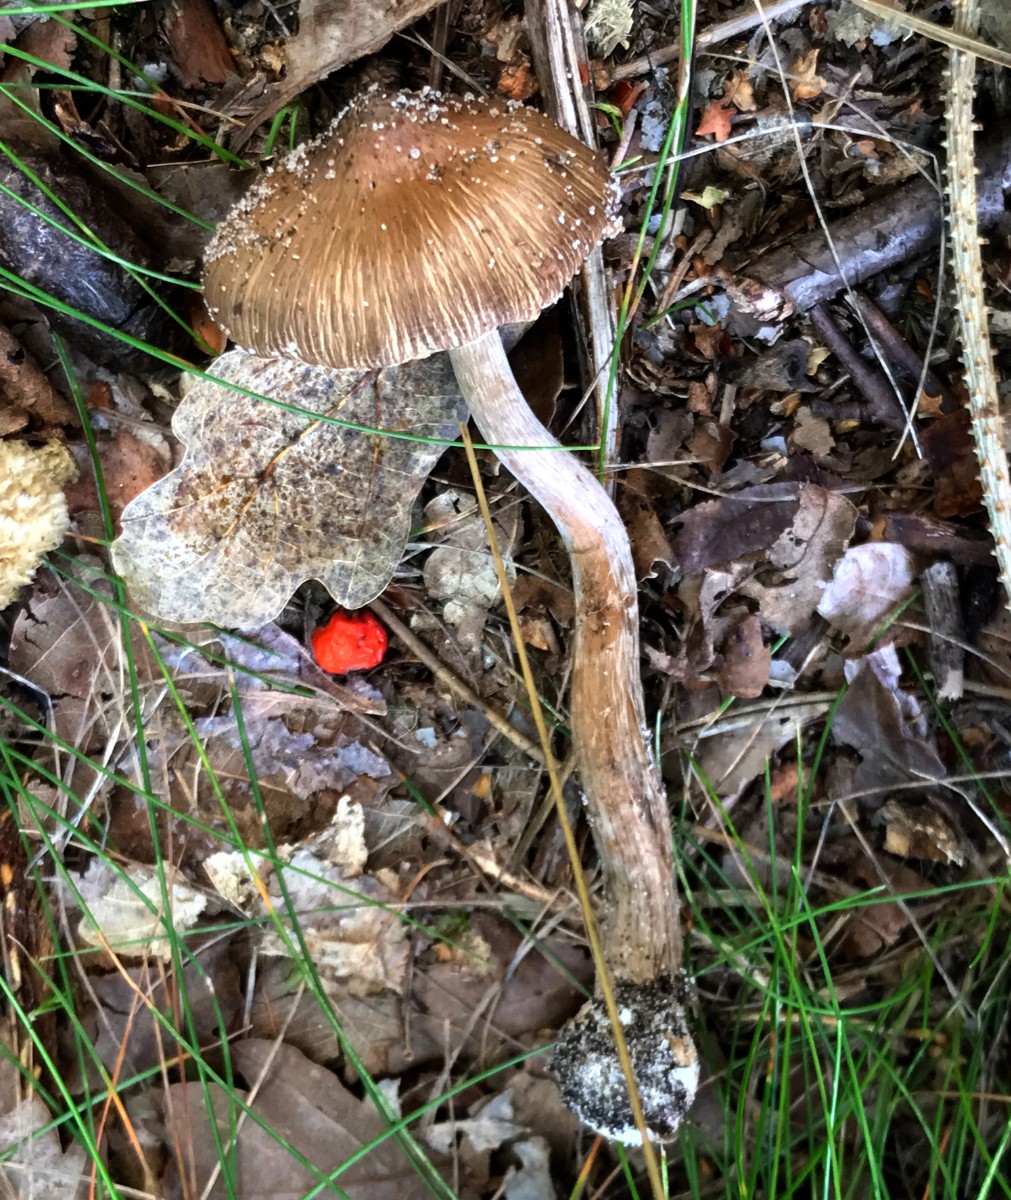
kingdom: Fungi
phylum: Basidiomycota
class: Agaricomycetes
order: Agaricales
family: Inocybaceae
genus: Inocybe
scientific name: Inocybe napipes
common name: roeknoldet trævlhat
